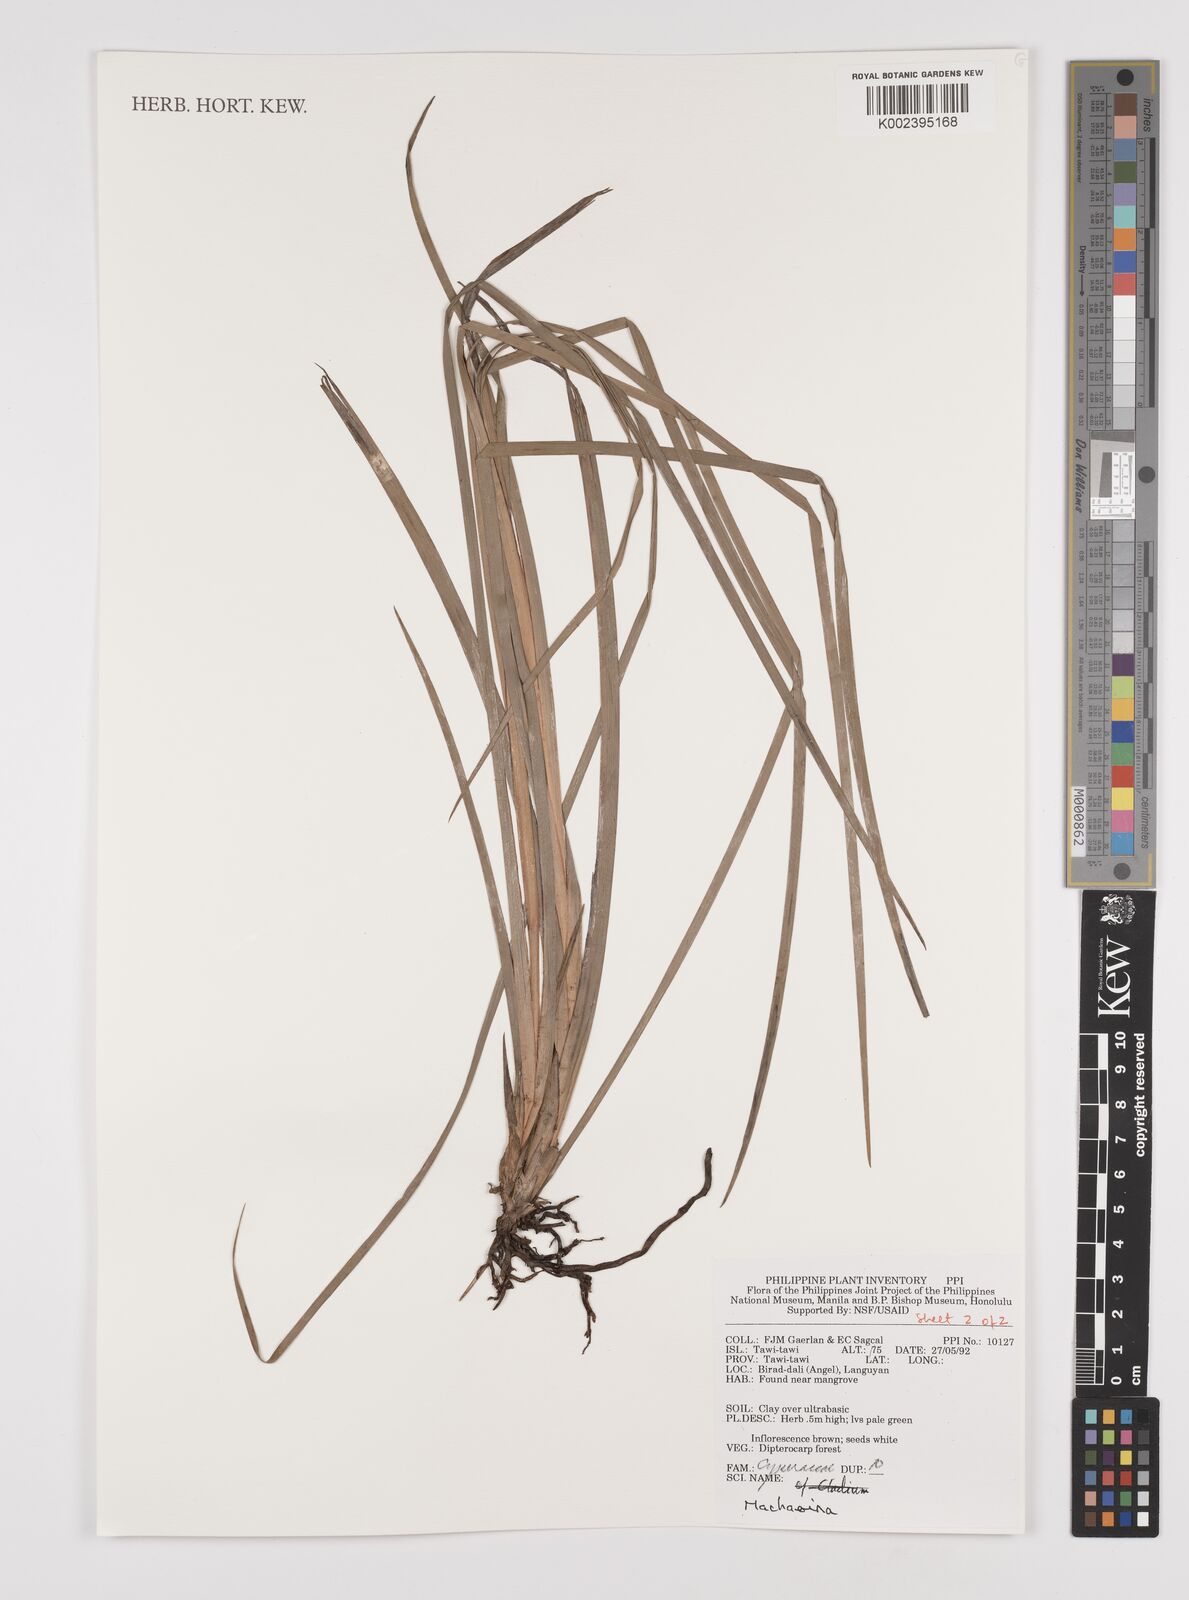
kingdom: Plantae
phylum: Tracheophyta
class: Liliopsida
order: Poales
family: Cyperaceae
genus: Machaerina
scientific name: Machaerina
